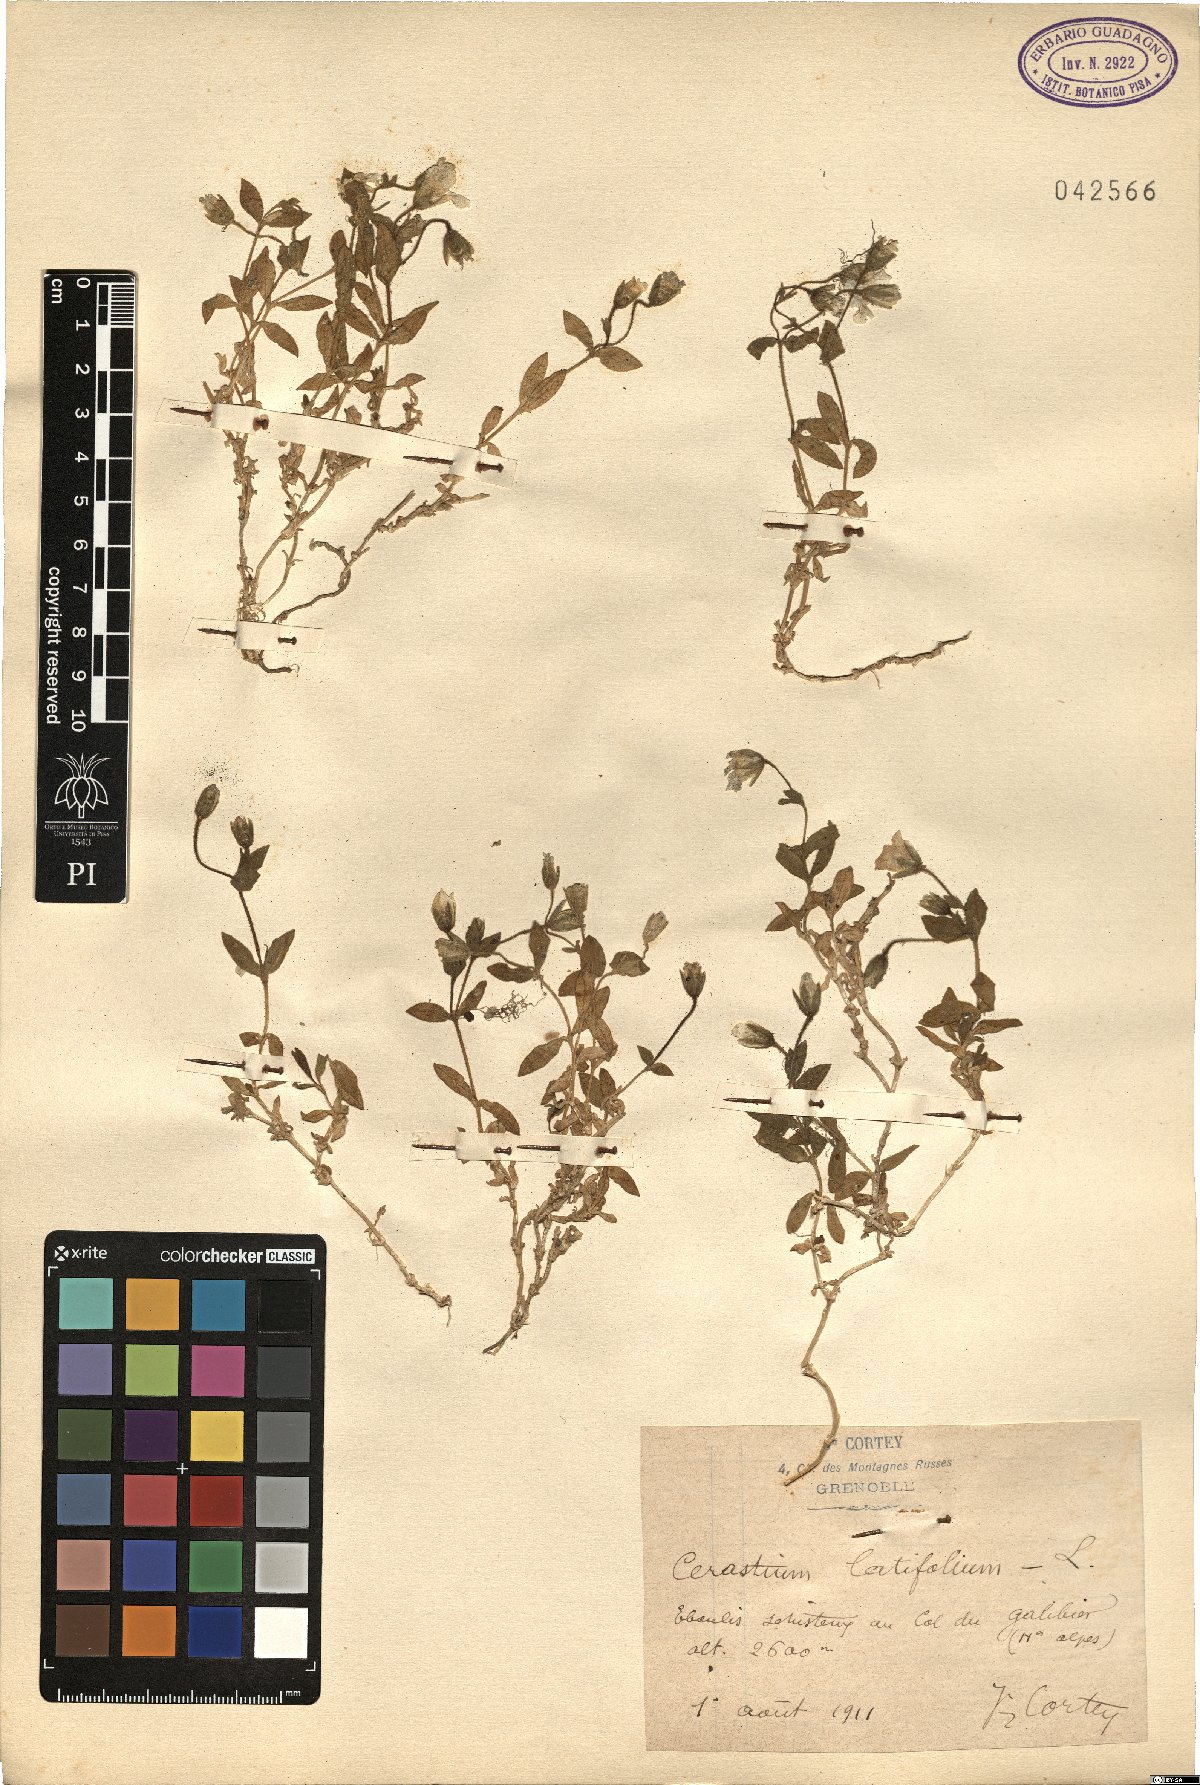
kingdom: Plantae
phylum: Tracheophyta
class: Magnoliopsida
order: Caryophyllales
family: Caryophyllaceae
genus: Cerastium
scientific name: Cerastium latifolium
